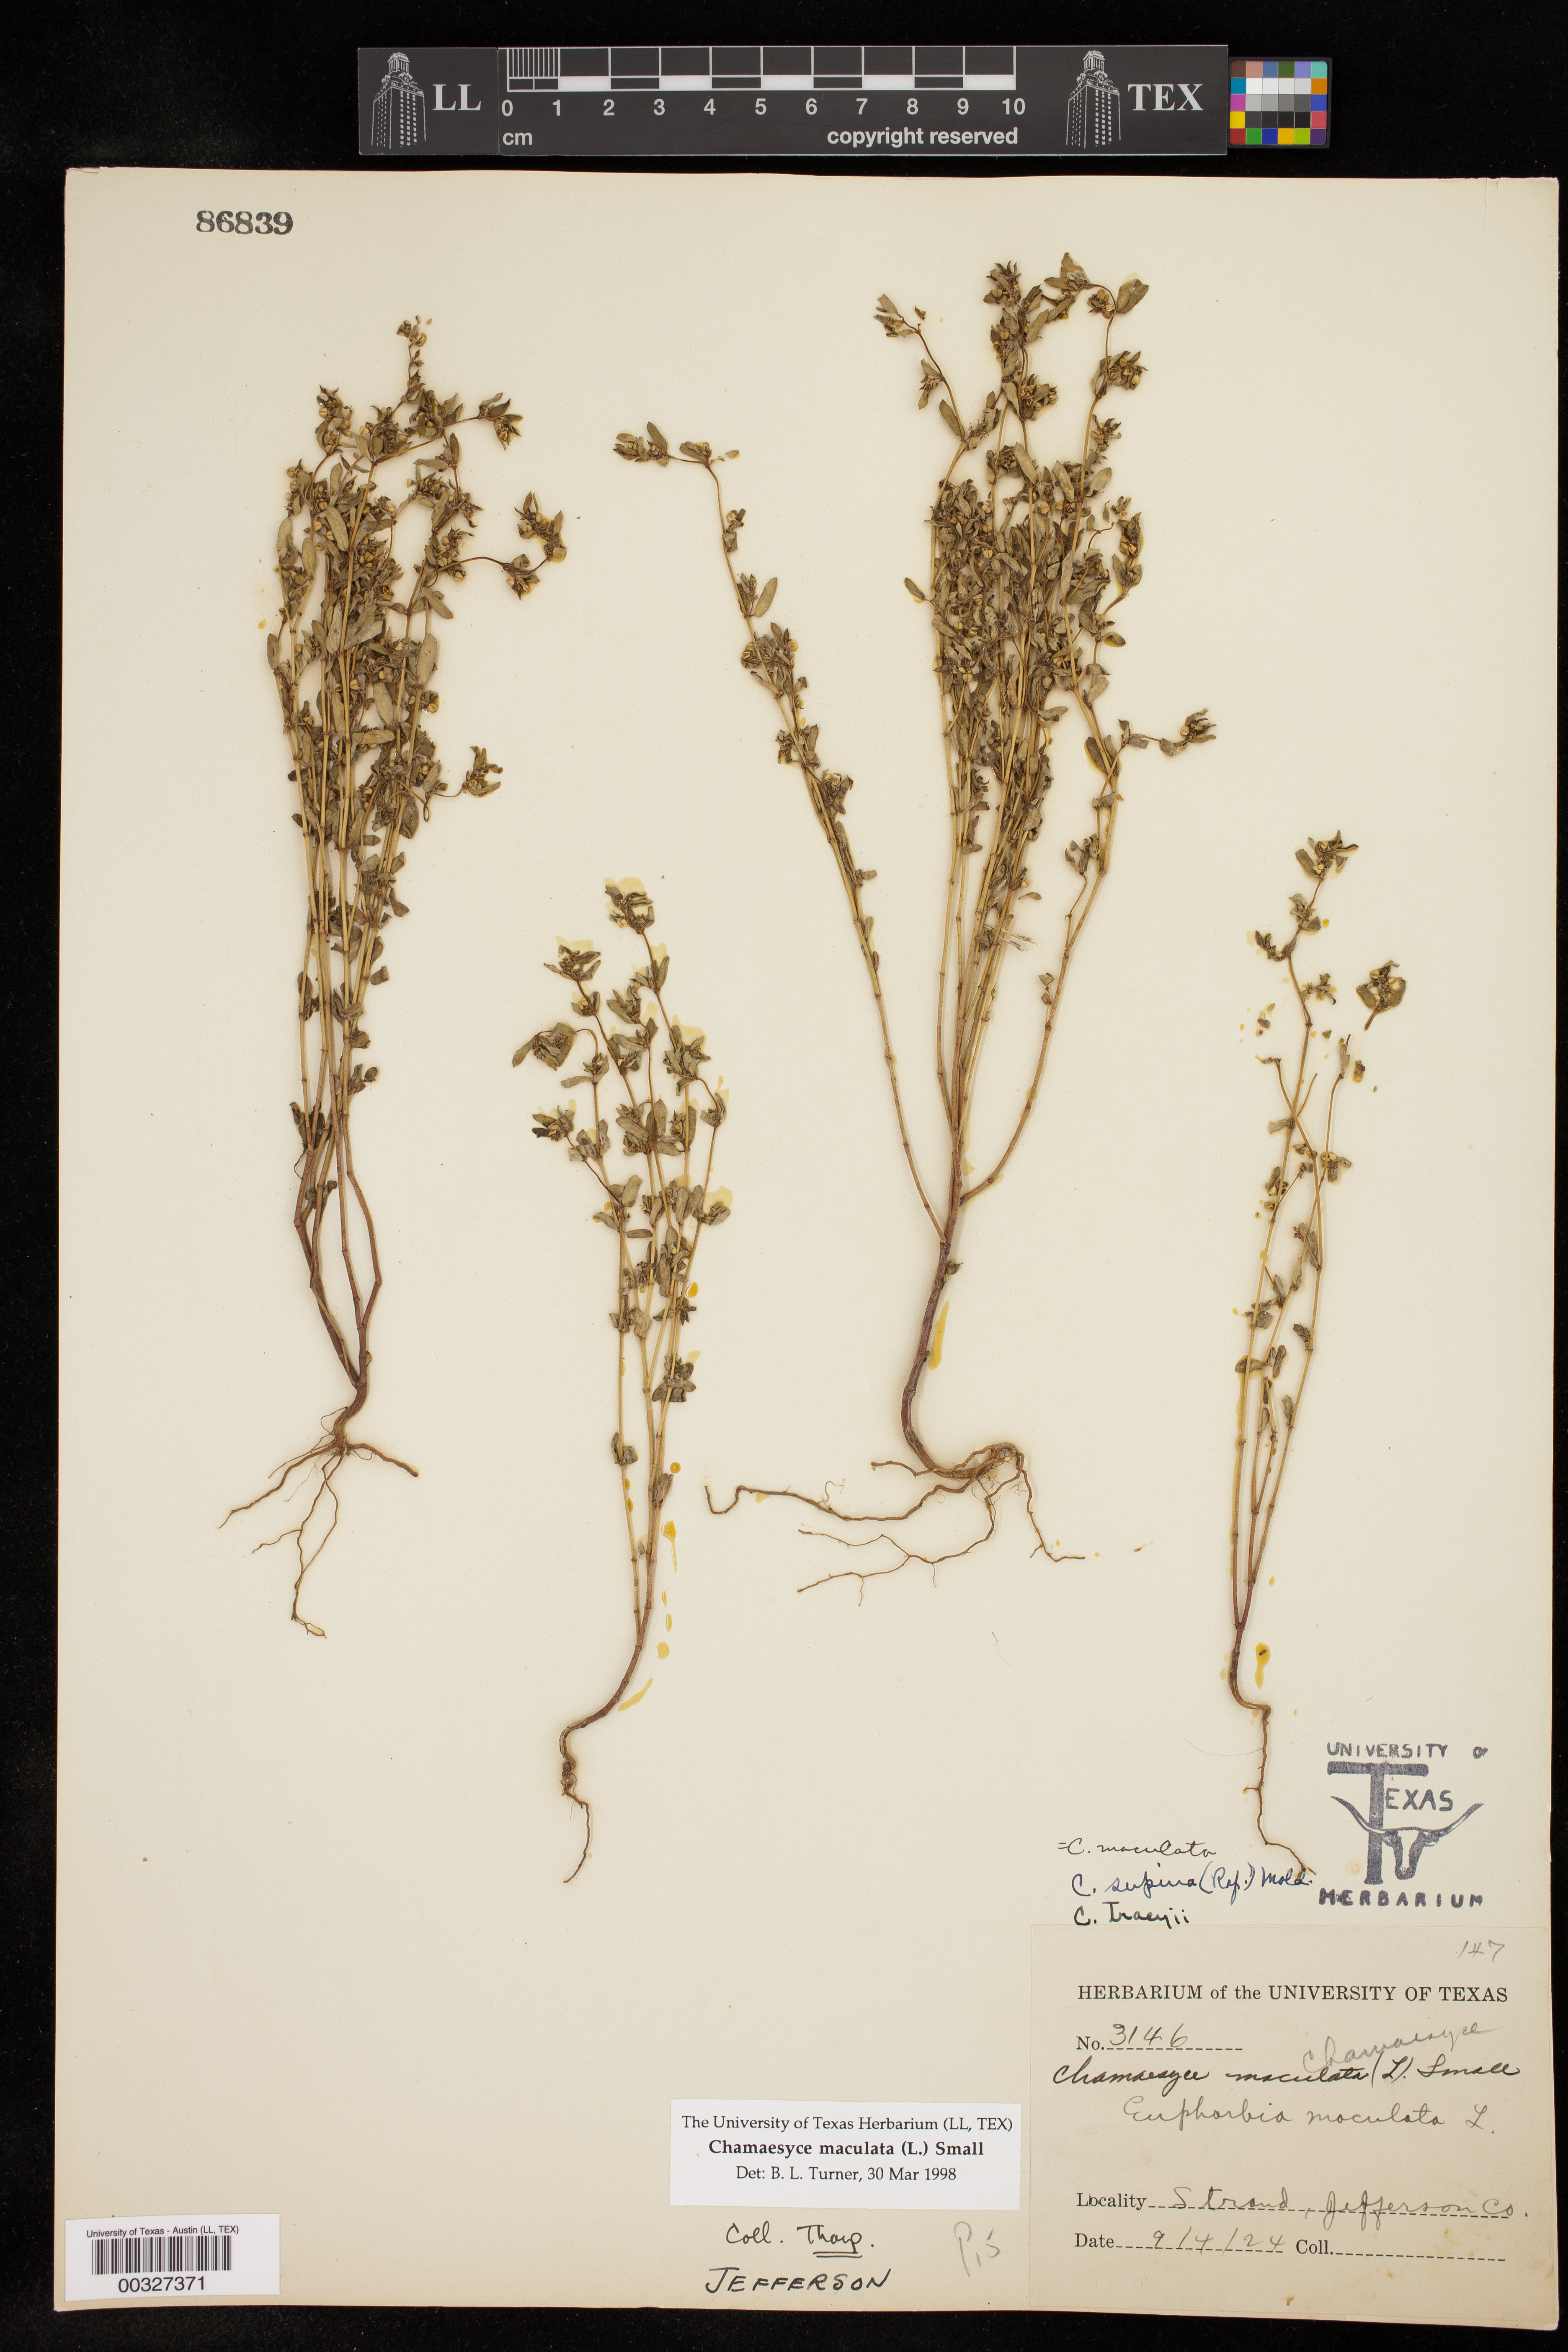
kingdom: Plantae
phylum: Tracheophyta
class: Magnoliopsida
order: Malpighiales
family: Euphorbiaceae
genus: Euphorbia
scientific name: Euphorbia maculata
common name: Spotted spurge
